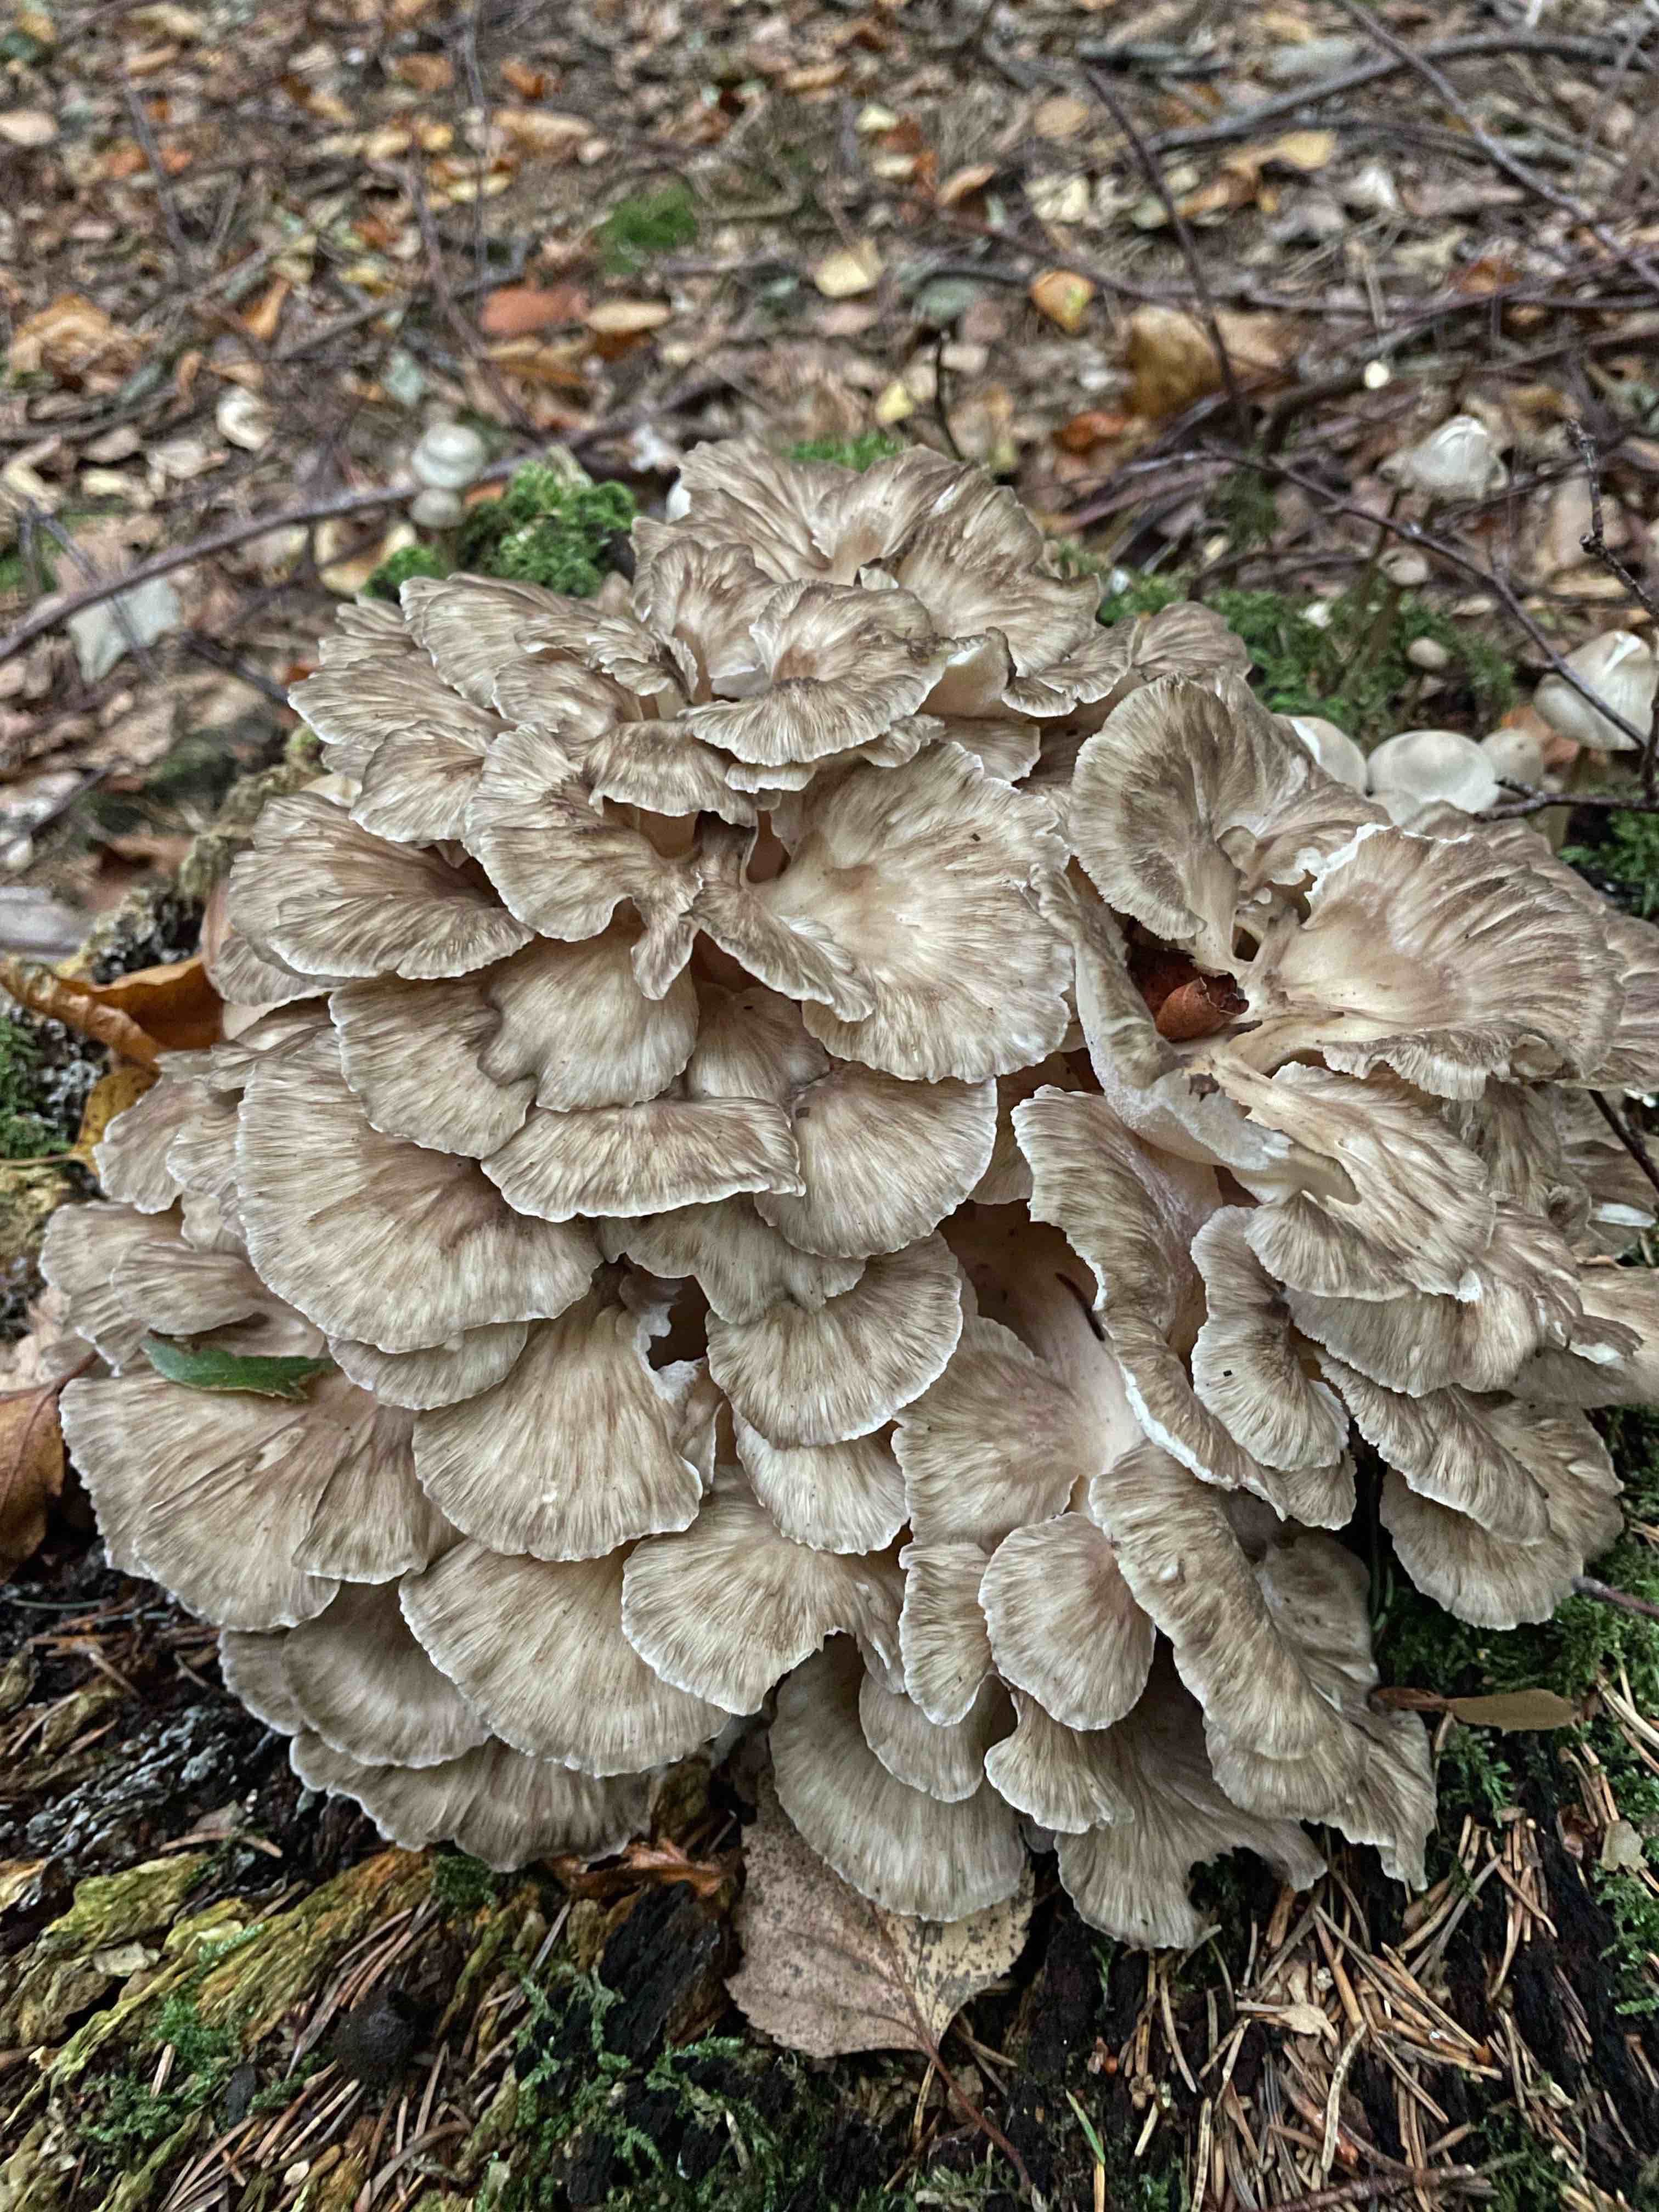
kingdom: Fungi
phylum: Basidiomycota
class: Agaricomycetes
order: Polyporales
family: Grifolaceae
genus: Grifola
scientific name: Grifola frondosa
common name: tueporesvamp
